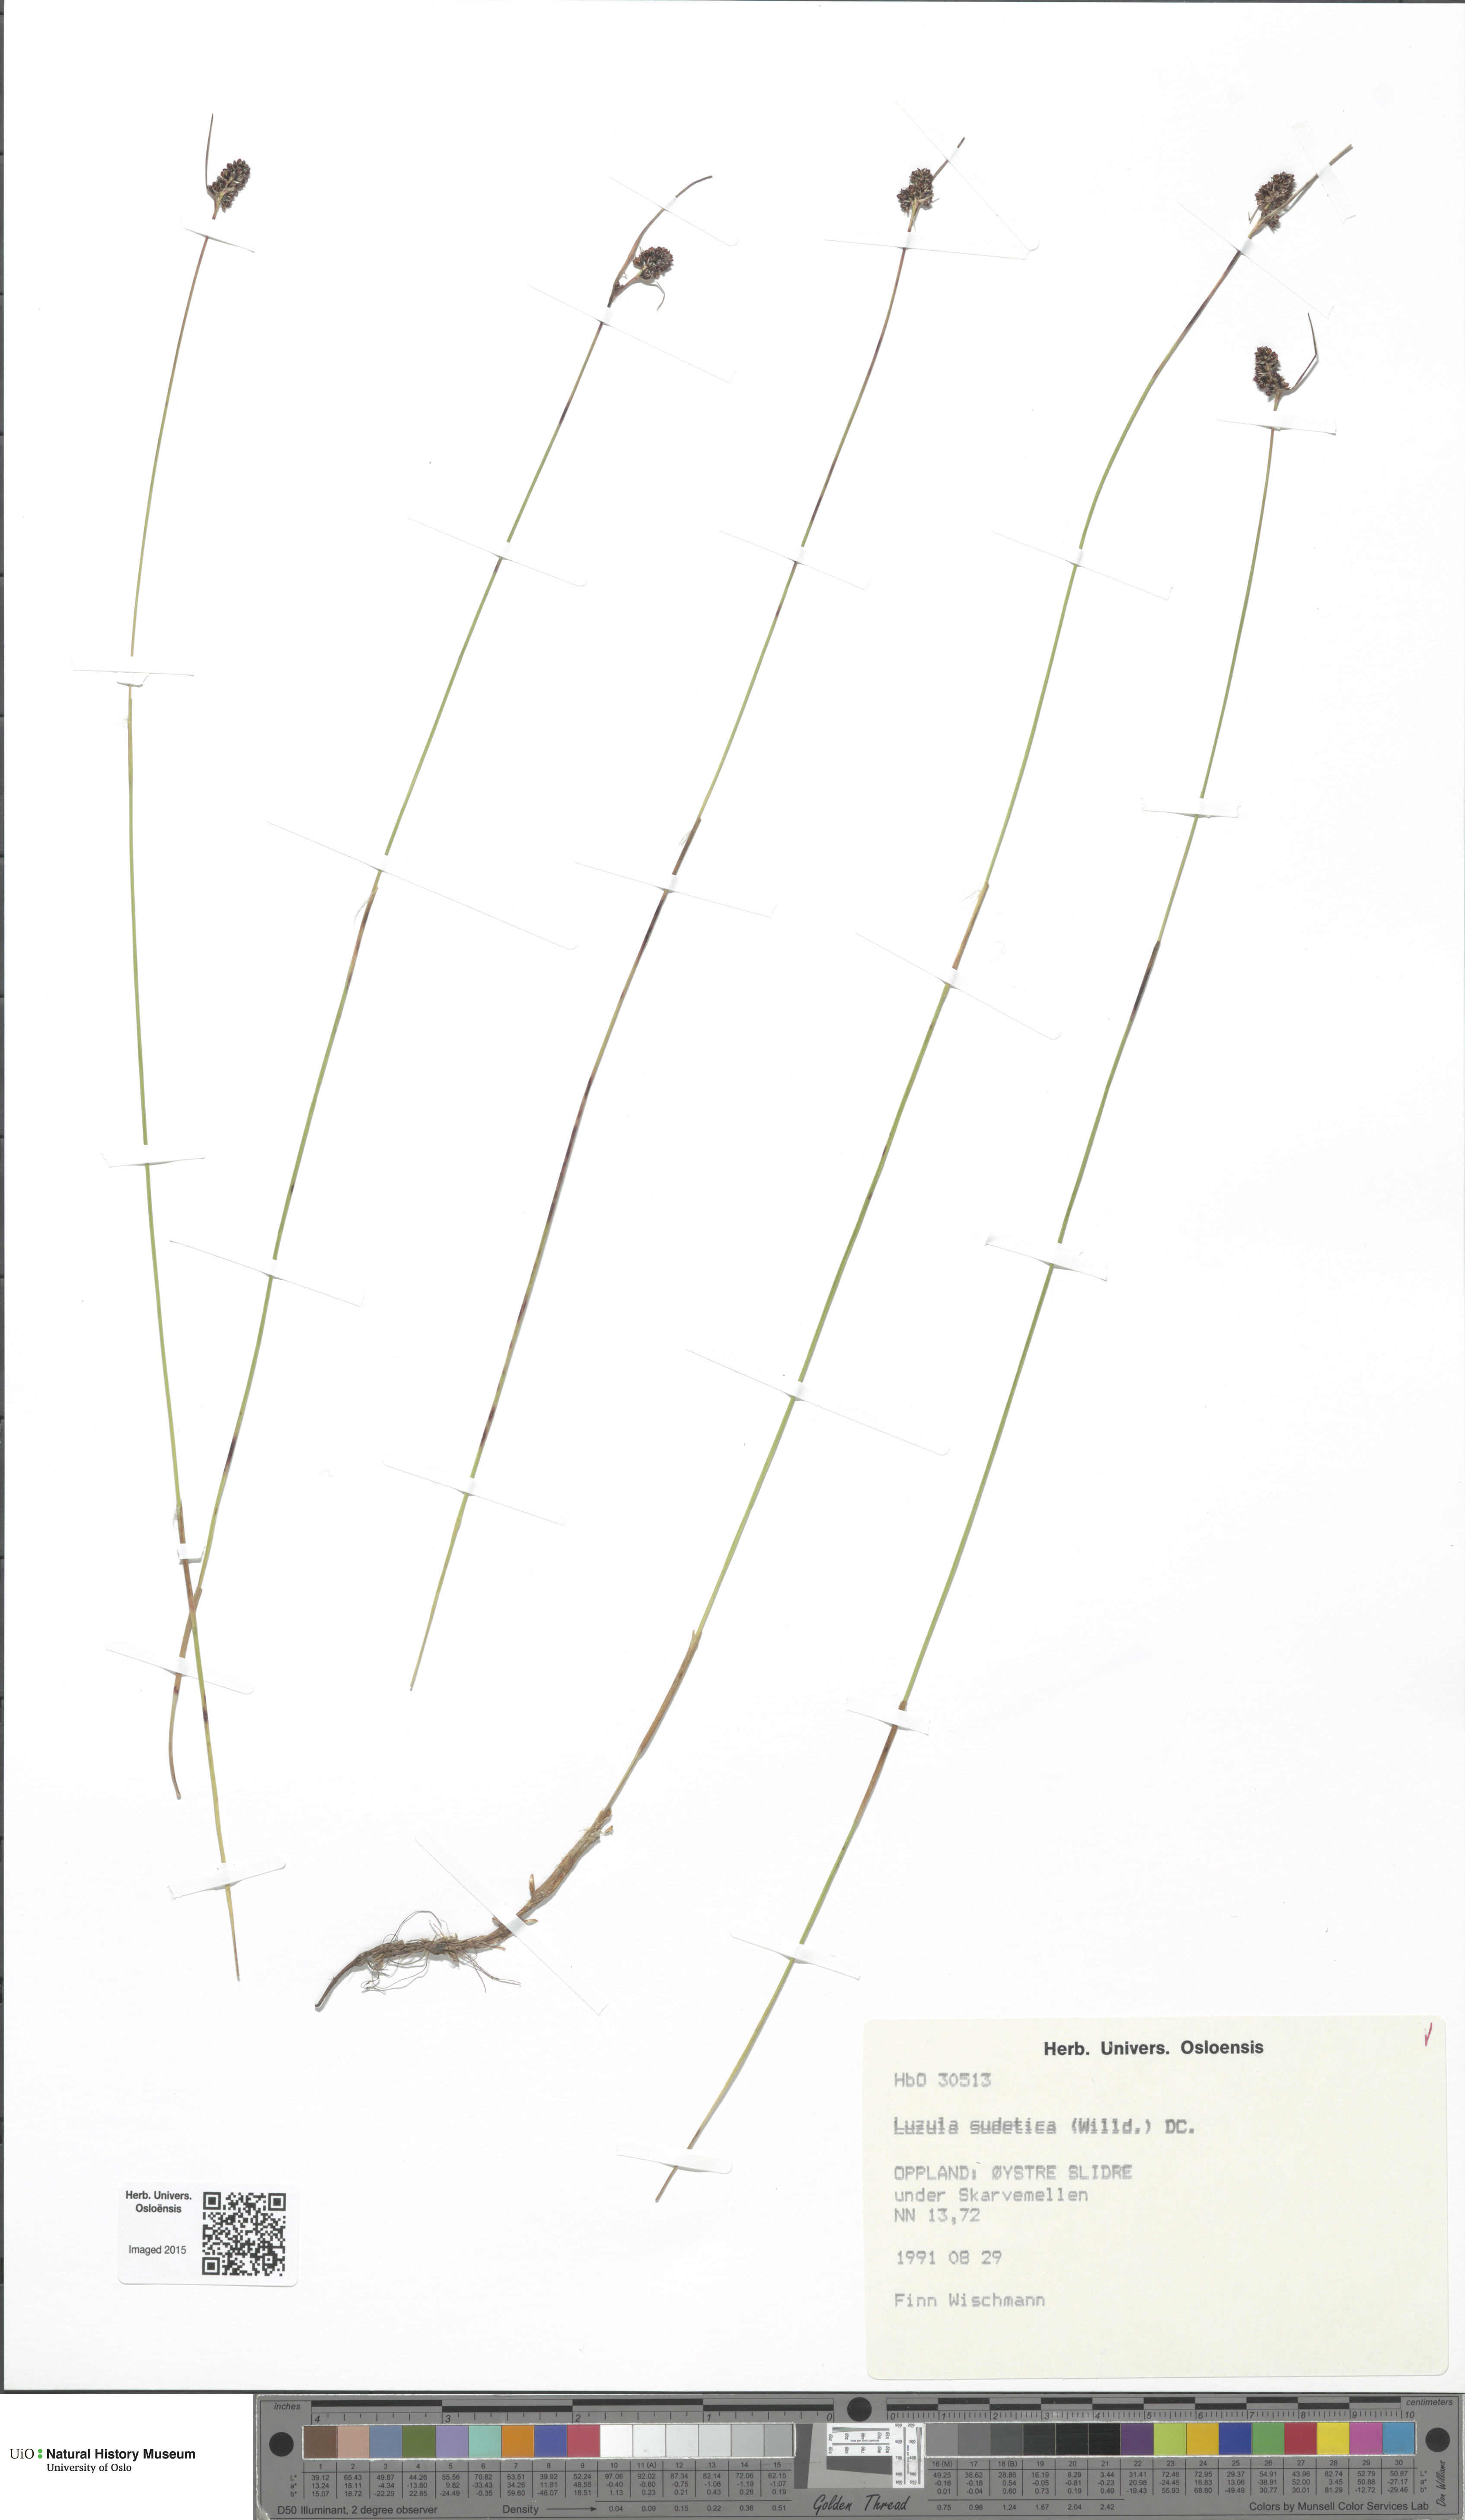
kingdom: Plantae
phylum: Tracheophyta
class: Liliopsida
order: Poales
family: Juncaceae
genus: Luzula
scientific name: Luzula sudetica
